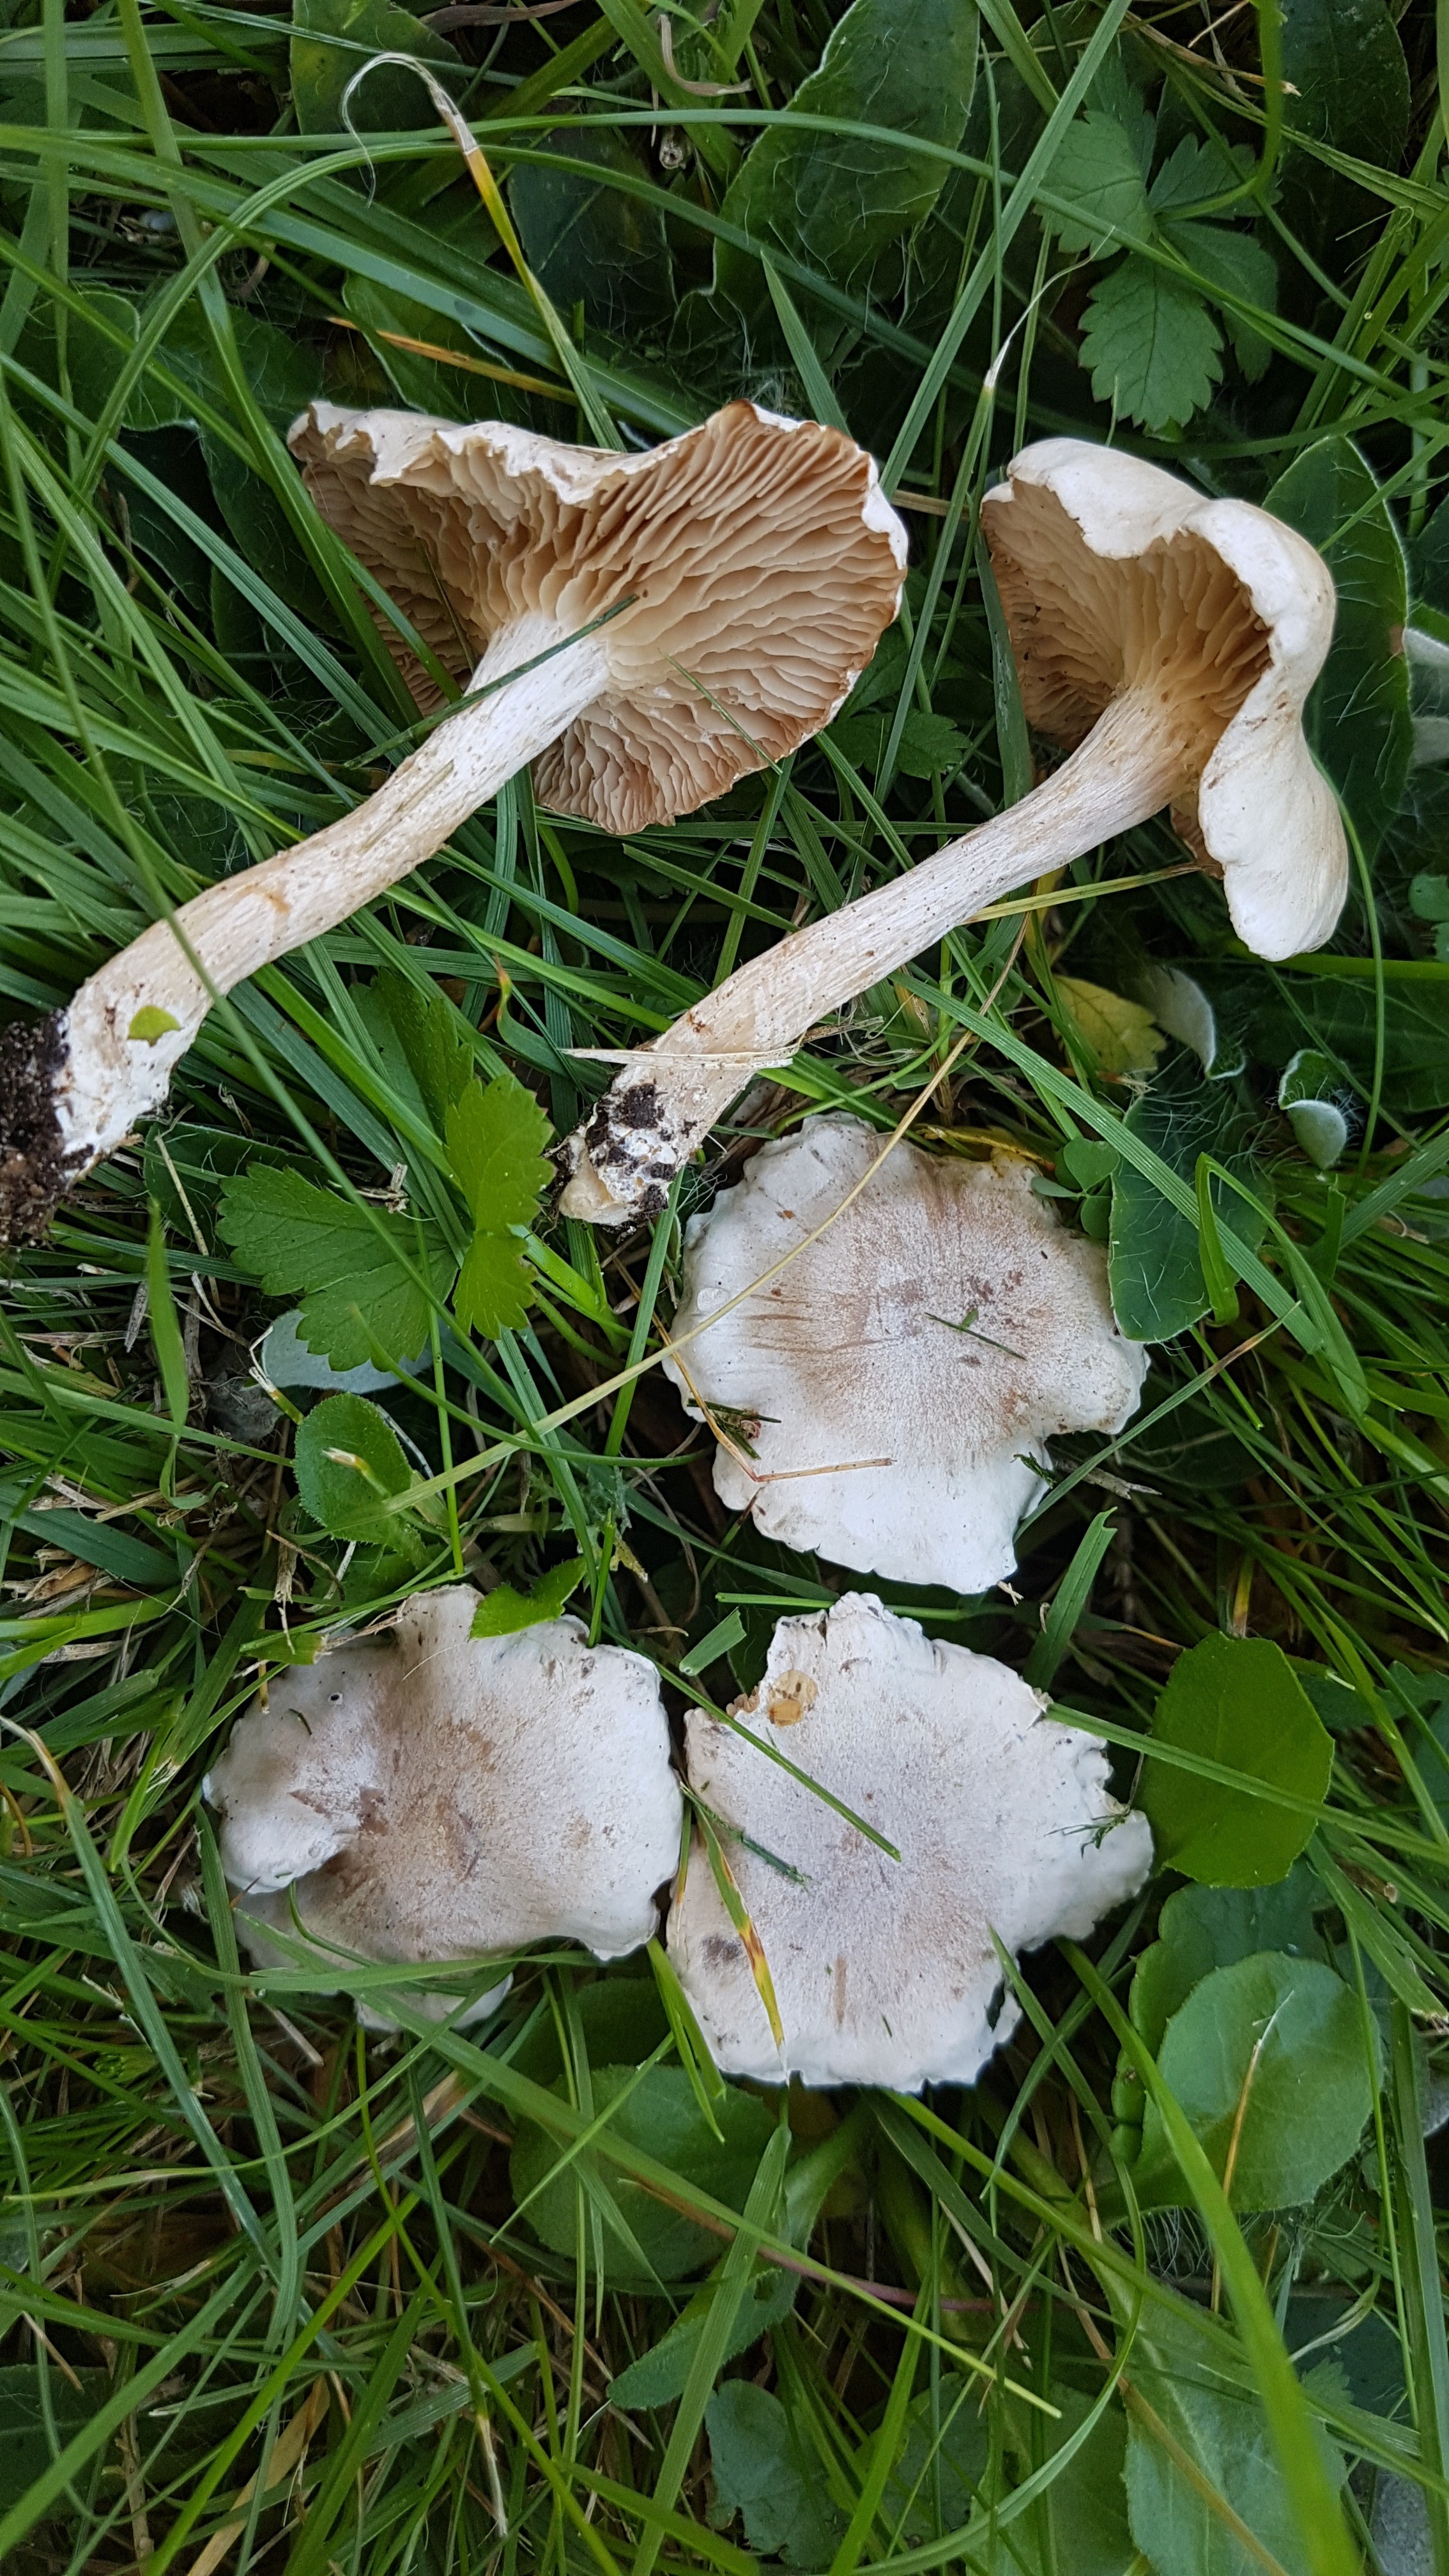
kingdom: Fungi
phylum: Basidiomycota
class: Agaricomycetes
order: Agaricales
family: Tricholomataceae
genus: Clitocybe
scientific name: Clitocybe rivulosa
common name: eng-tragthat
